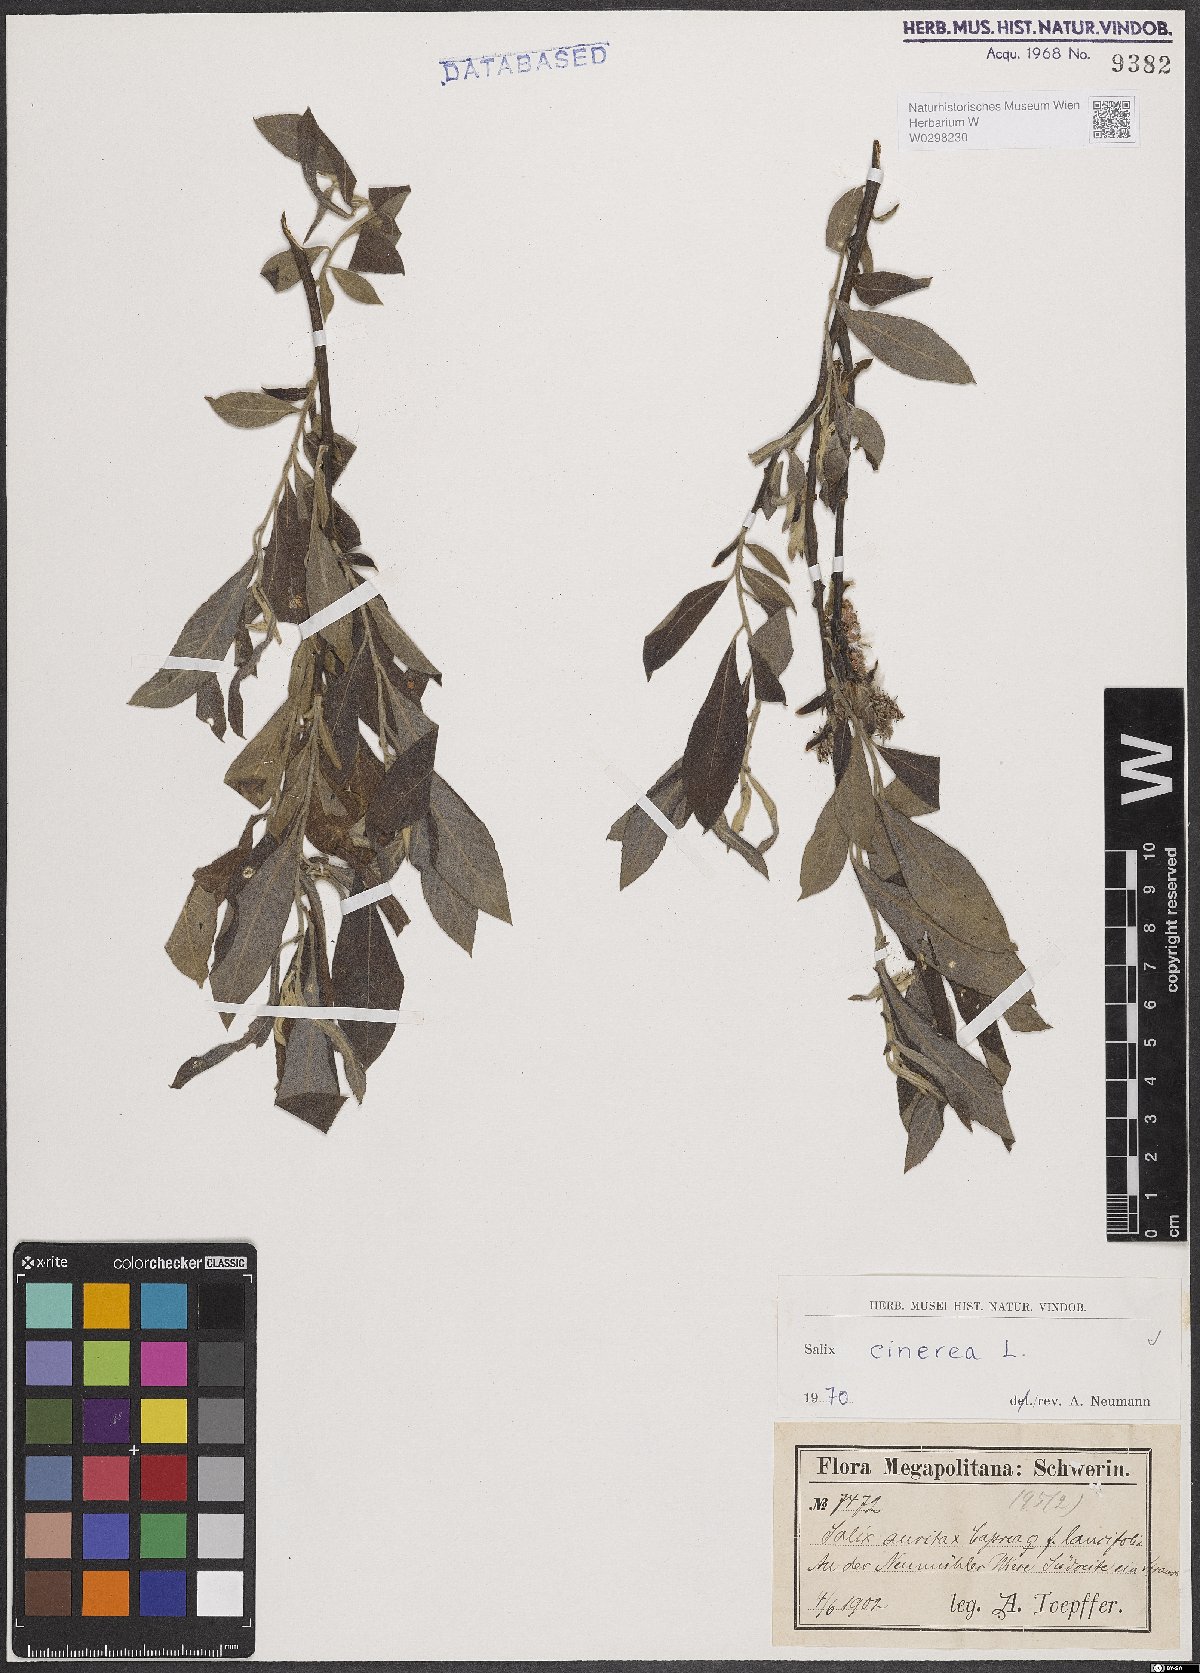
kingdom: Plantae
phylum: Tracheophyta
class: Magnoliopsida
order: Malpighiales
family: Salicaceae
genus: Salix
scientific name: Salix cinerea
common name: Common sallow
